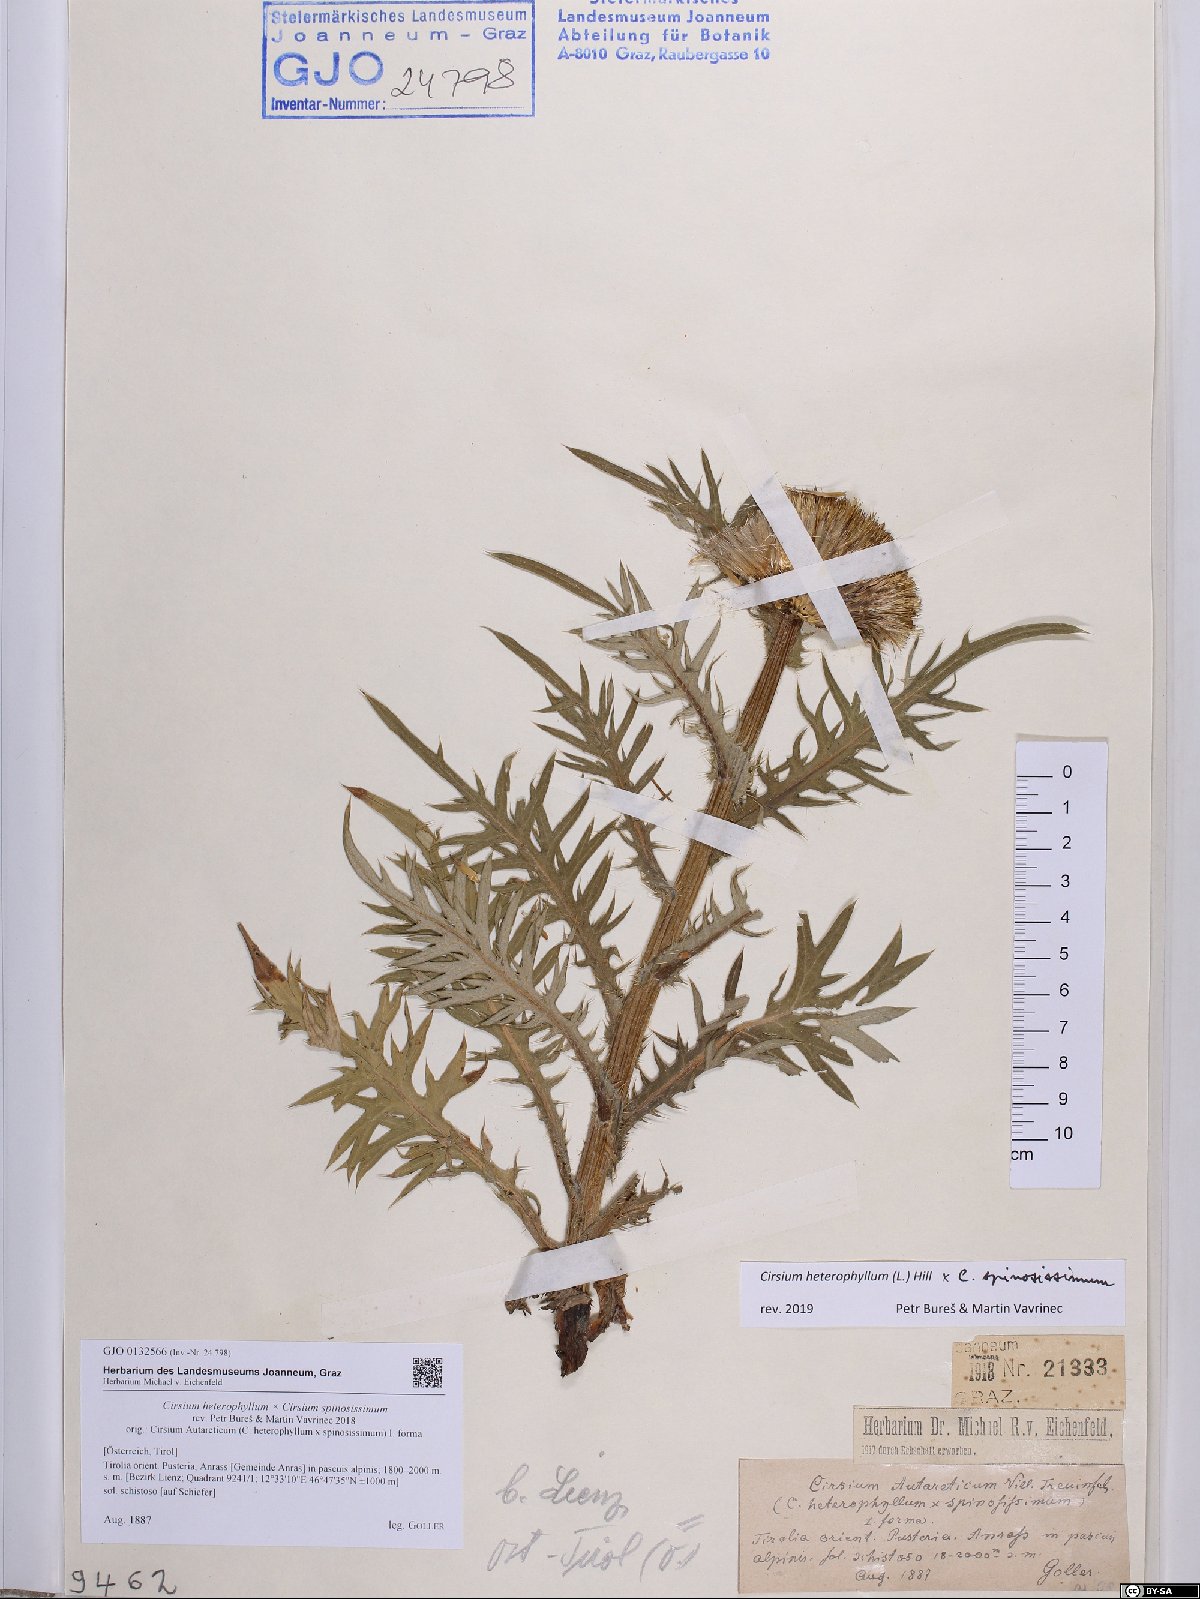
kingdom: Plantae
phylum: Tracheophyta
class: Magnoliopsida
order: Asterales
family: Asteraceae
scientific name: Asteraceae
